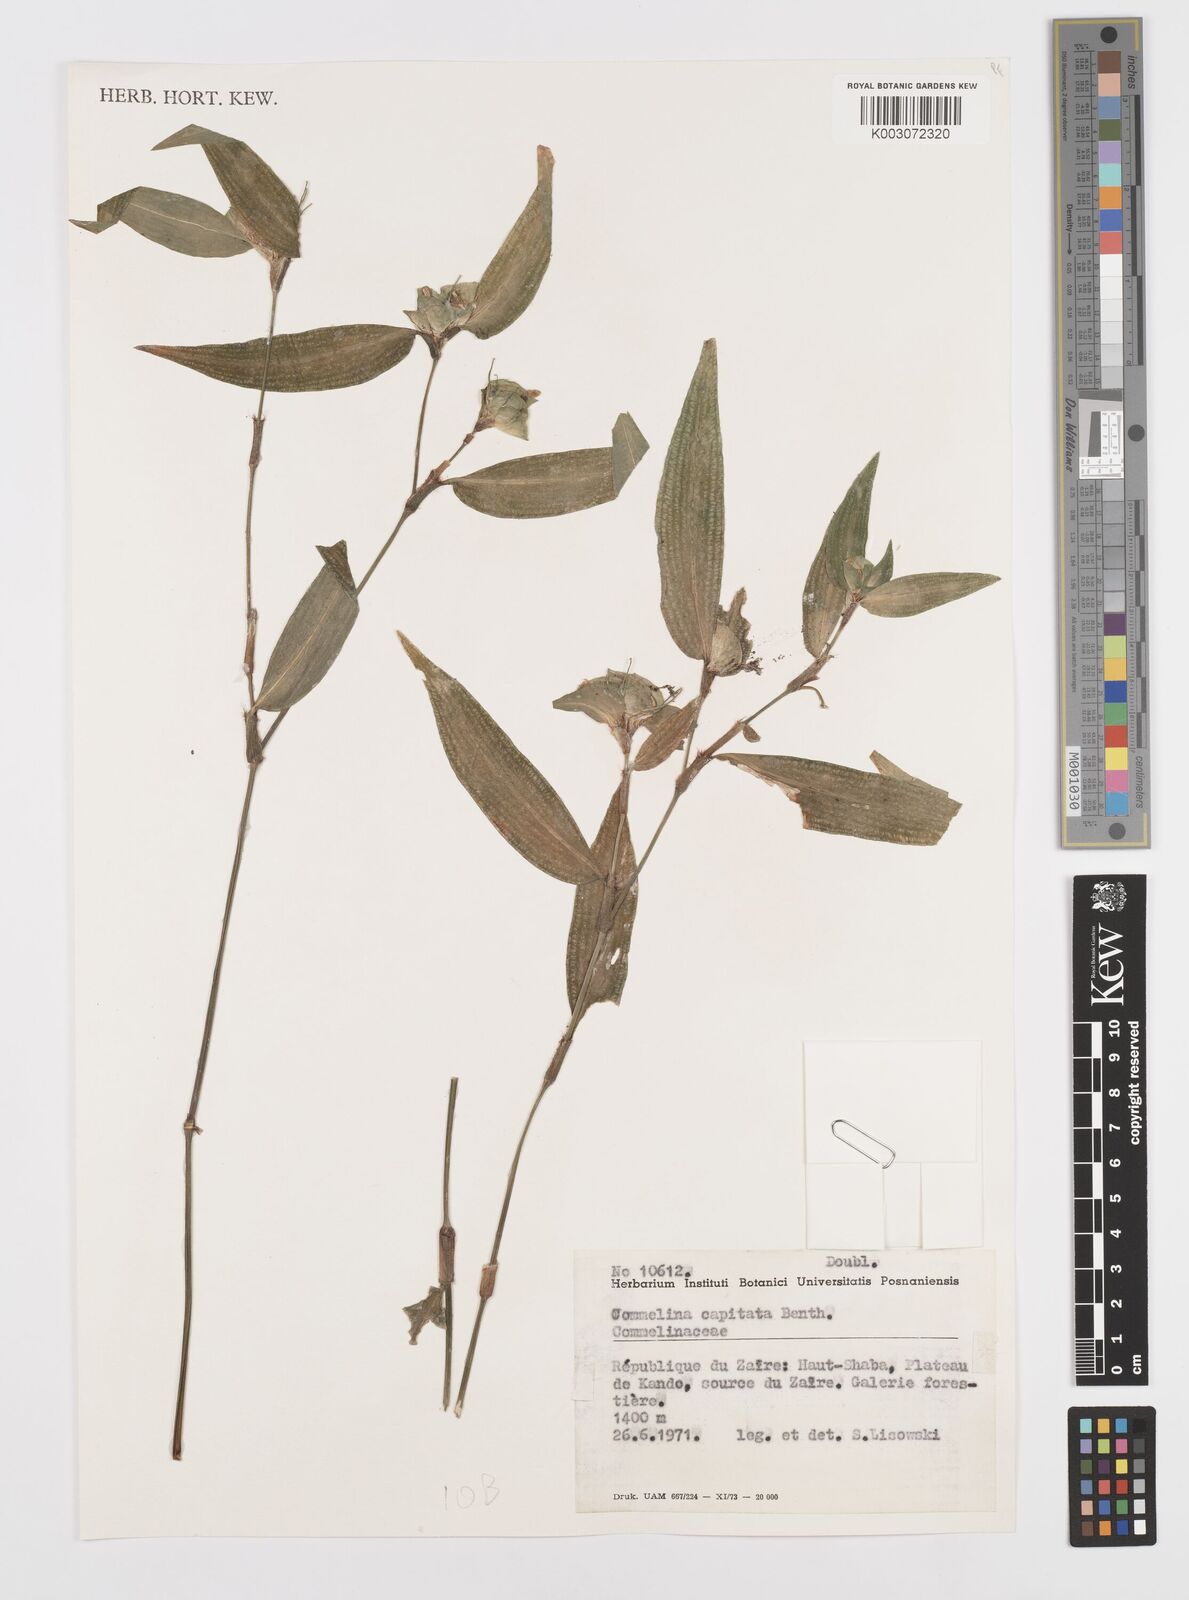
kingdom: Plantae
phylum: Tracheophyta
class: Liliopsida
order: Commelinales
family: Commelinaceae
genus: Commelina
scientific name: Commelina capitata
